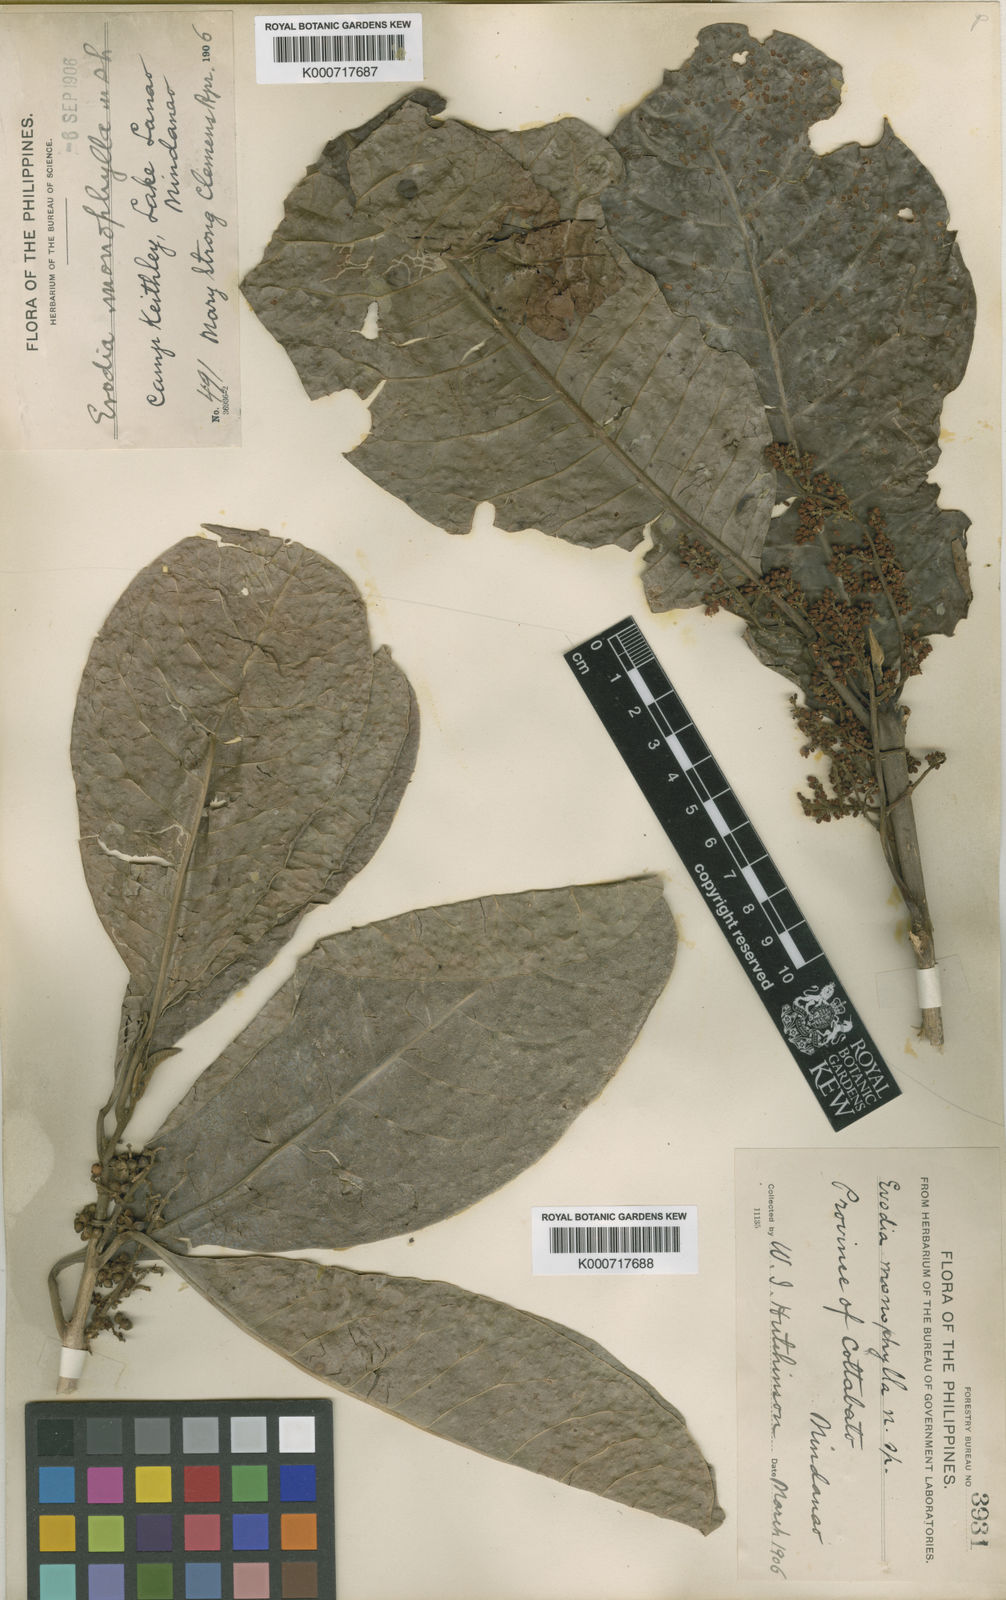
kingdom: Plantae
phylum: Tracheophyta
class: Magnoliopsida
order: Sapindales
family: Rutaceae
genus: Melicope
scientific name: Melicope mindorensis
